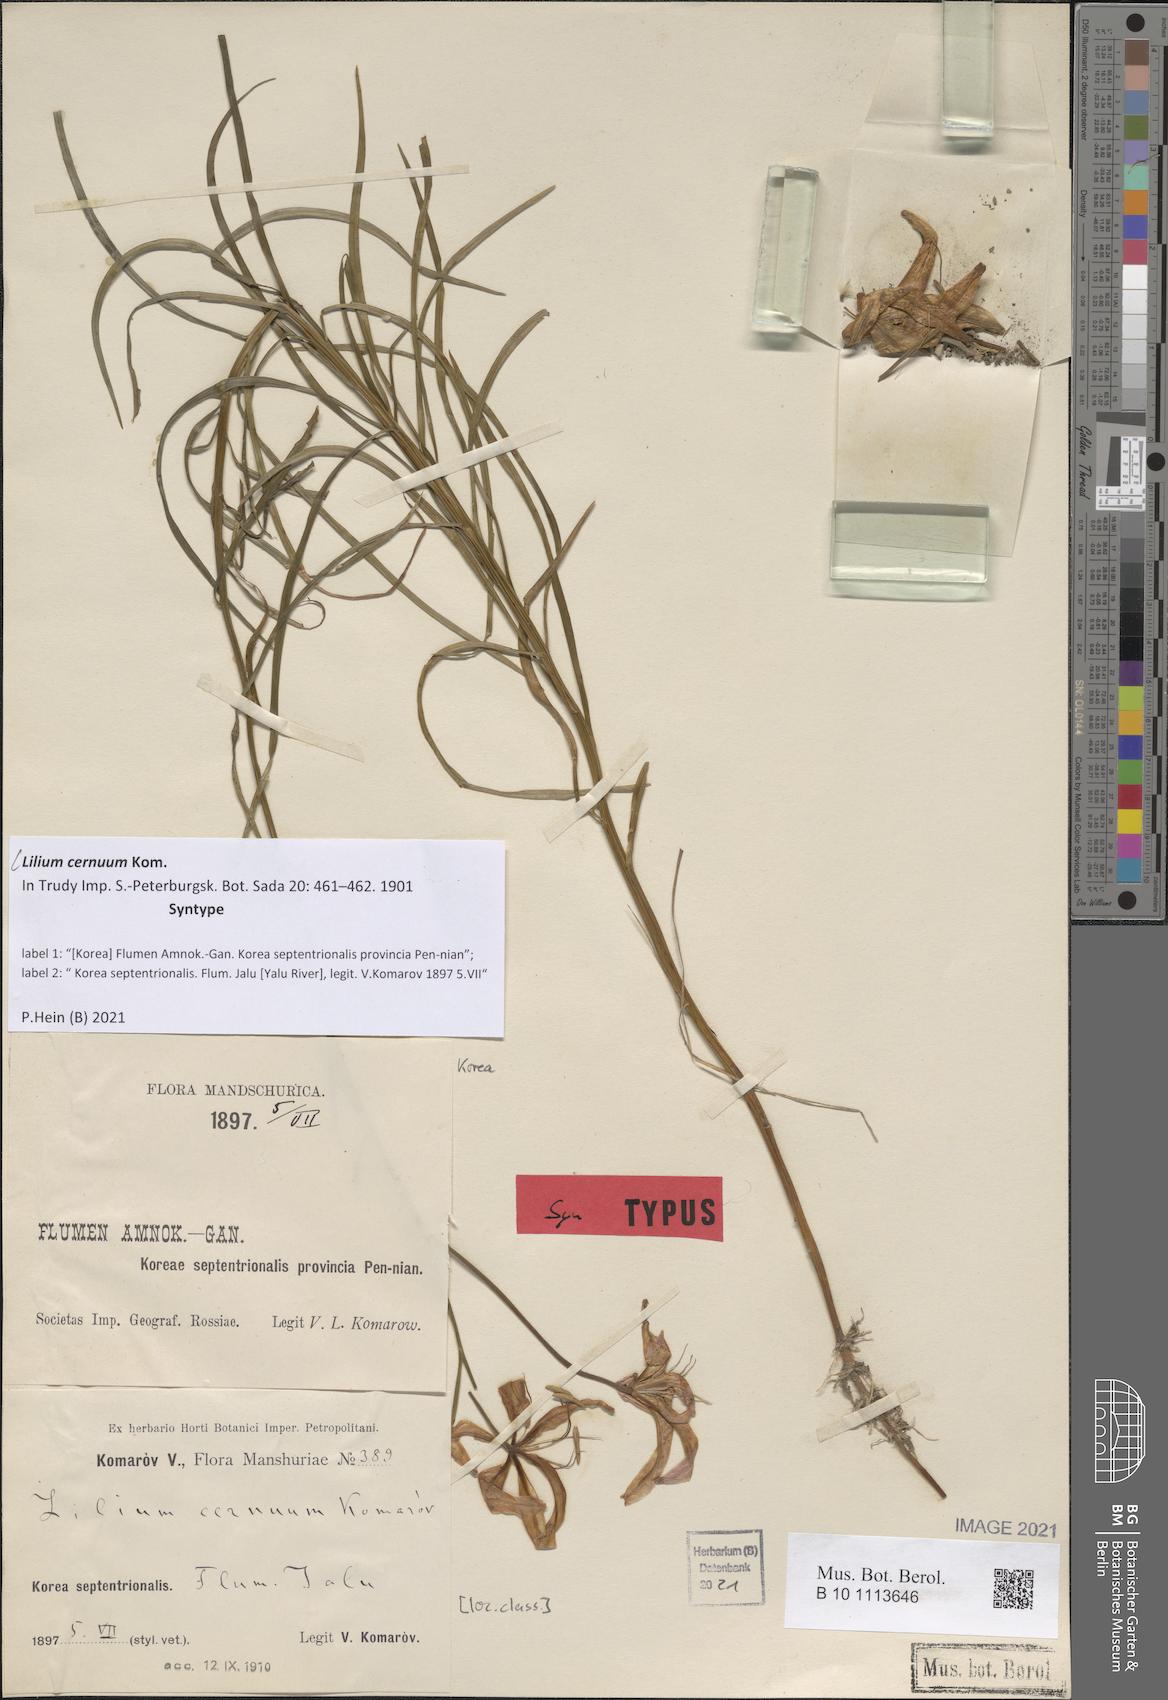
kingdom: Plantae
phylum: Tracheophyta
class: Liliopsida
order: Liliales
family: Liliaceae
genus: Lilium
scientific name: Lilium cernuum
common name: Nodding lily
